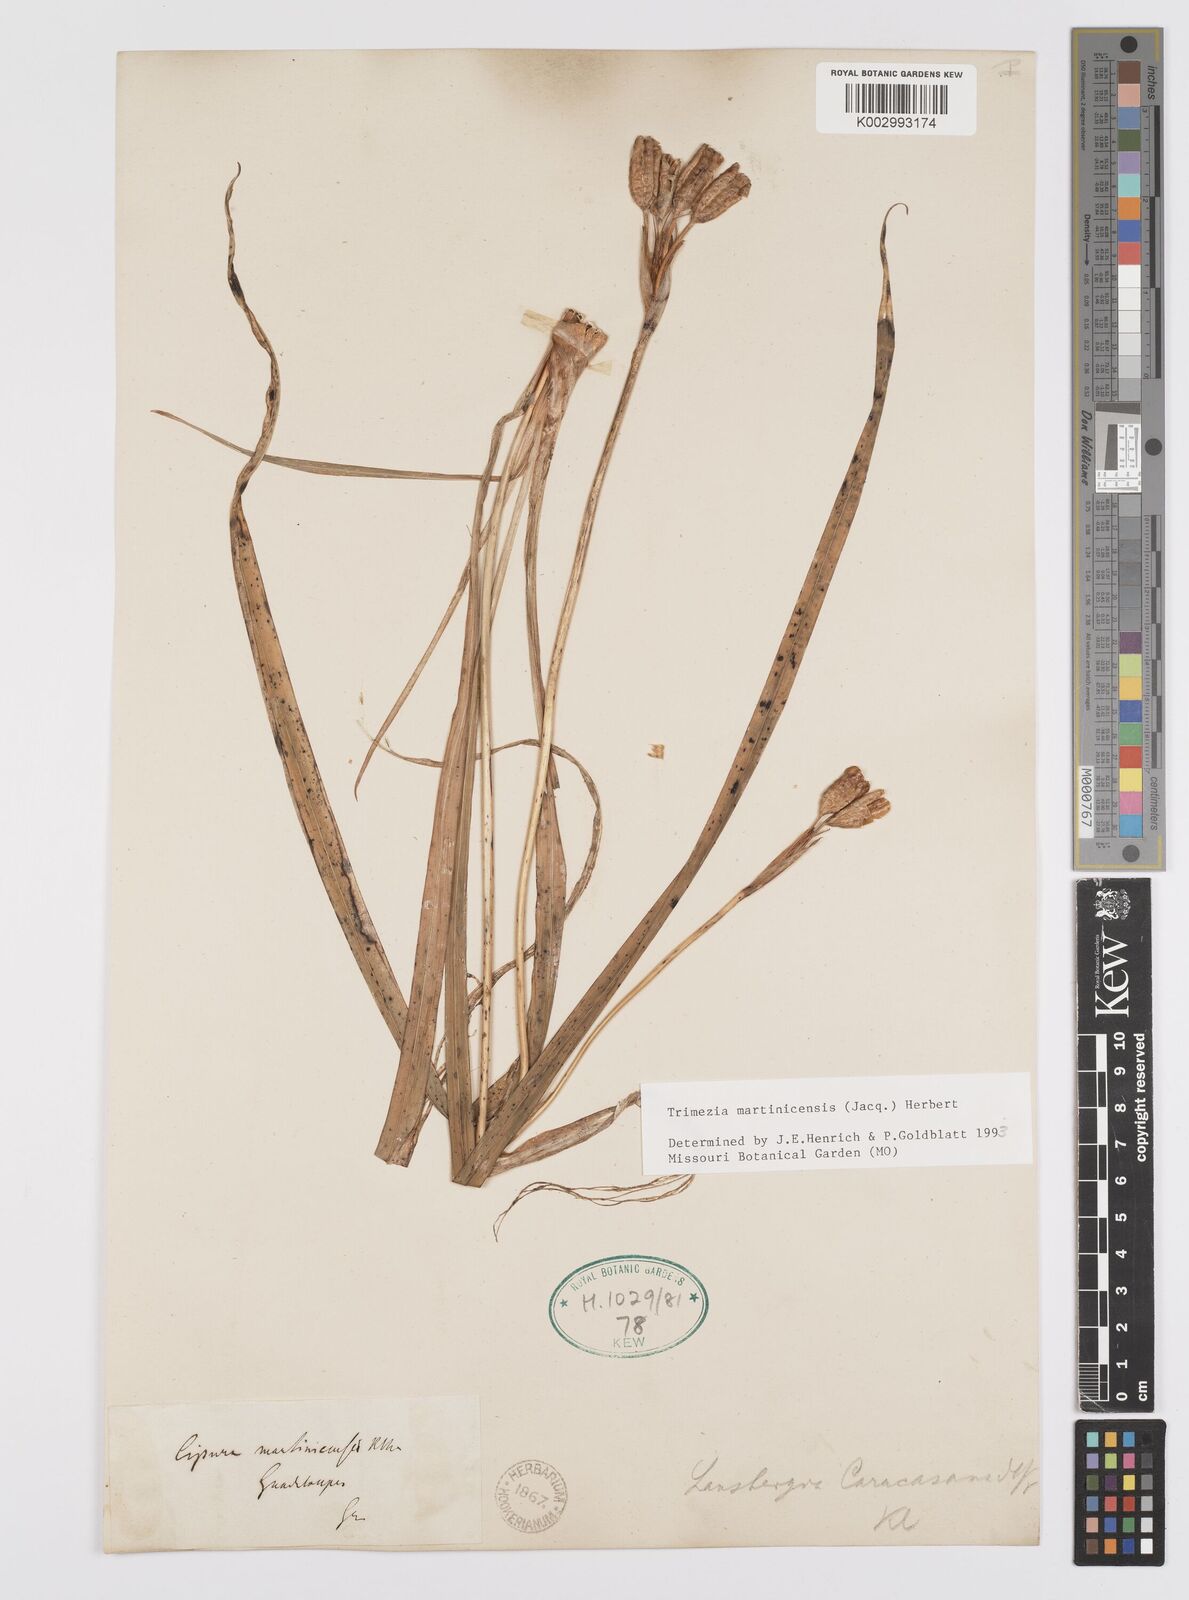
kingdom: Plantae
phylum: Tracheophyta
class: Liliopsida
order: Asparagales
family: Iridaceae
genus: Trimezia
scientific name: Trimezia martinicensis
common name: Martinique trimezia
